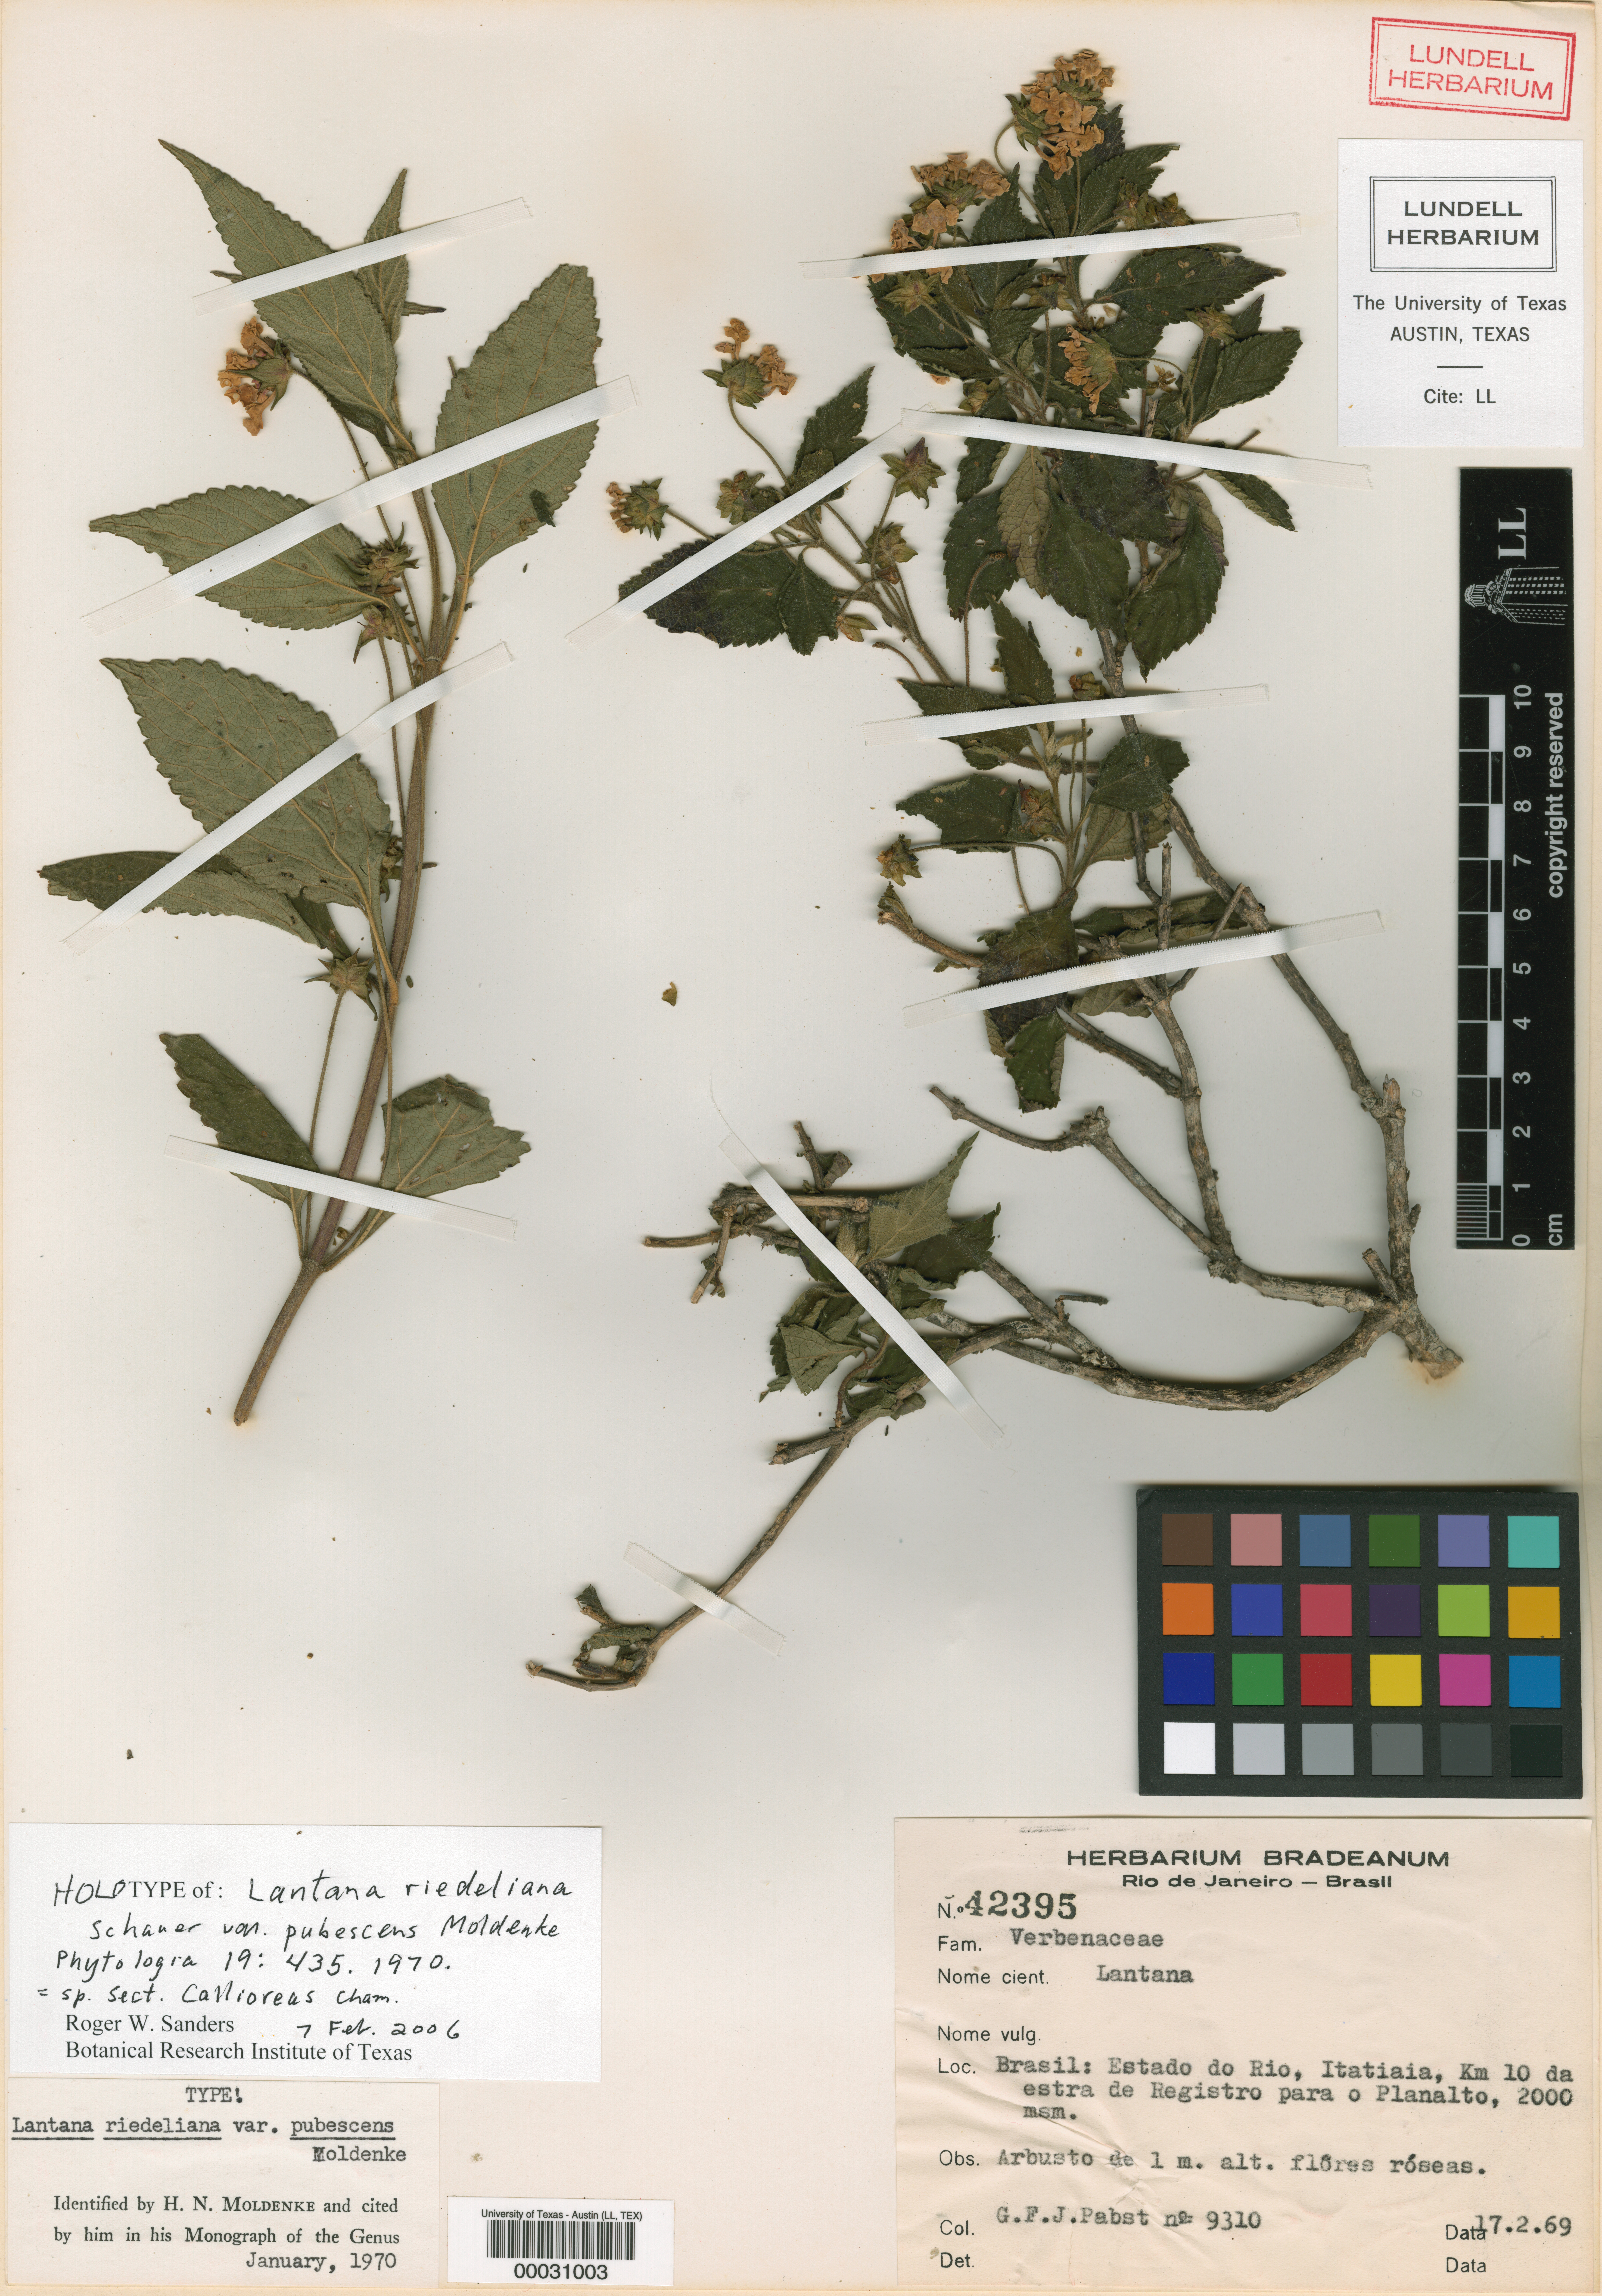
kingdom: Plantae
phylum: Tracheophyta
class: Magnoliopsida
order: Lamiales
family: Verbenaceae
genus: Lantana
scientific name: Lantana
